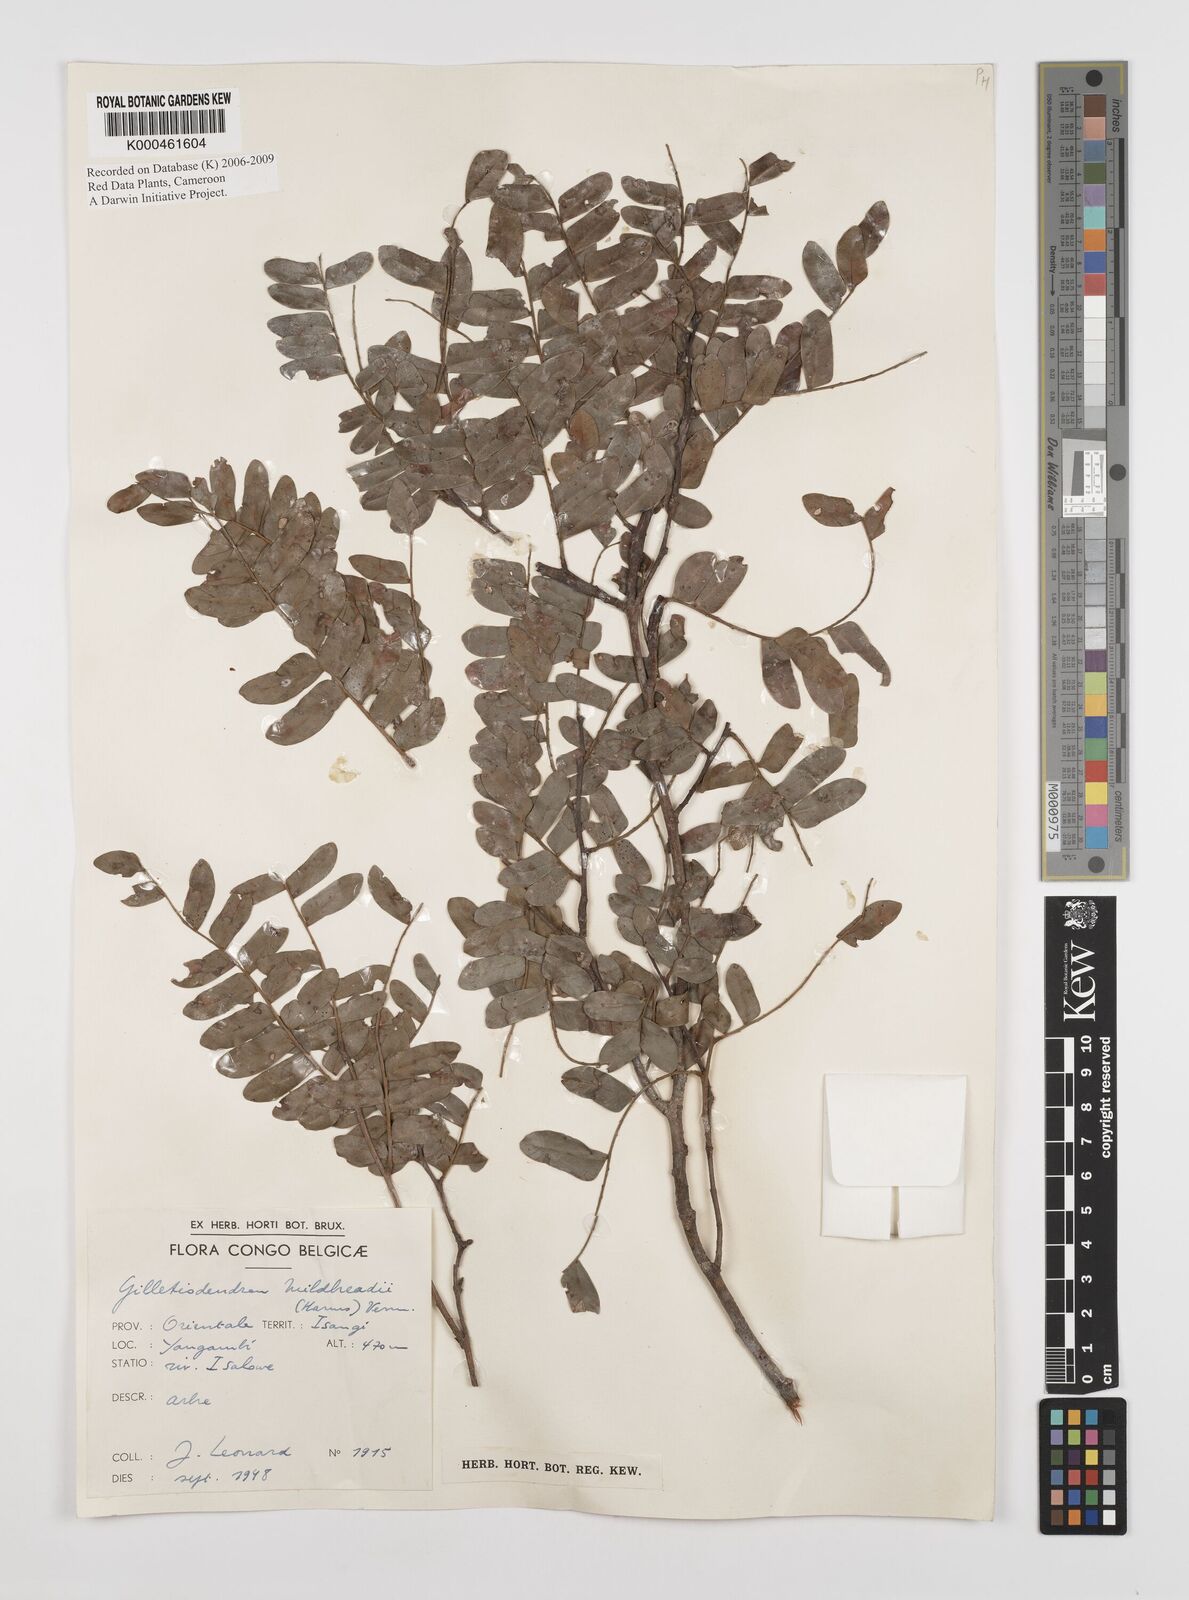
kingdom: Plantae
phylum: Tracheophyta
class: Magnoliopsida
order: Fabales
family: Fabaceae
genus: Gilletiodendron
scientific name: Gilletiodendron mildbraedii
